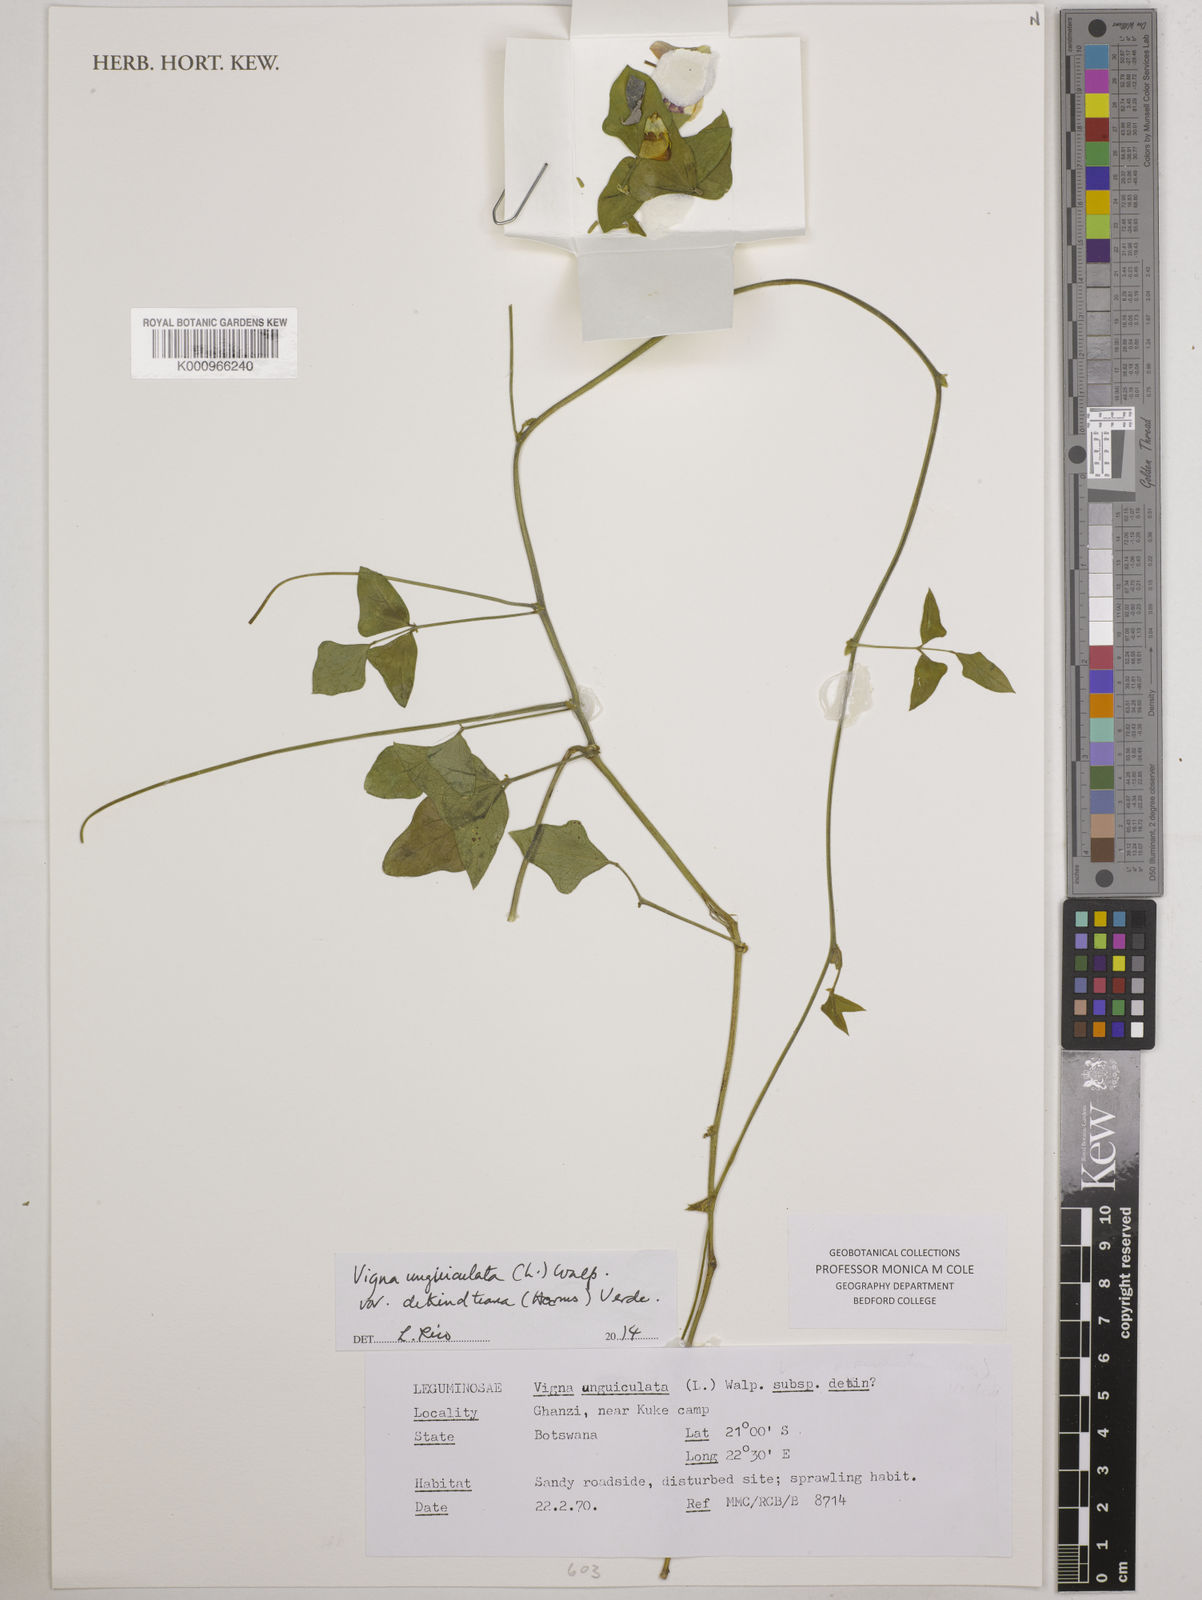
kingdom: Plantae
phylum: Tracheophyta
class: Magnoliopsida
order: Fabales
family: Fabaceae
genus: Vigna
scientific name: Vigna unguiculata
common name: Cowpea
